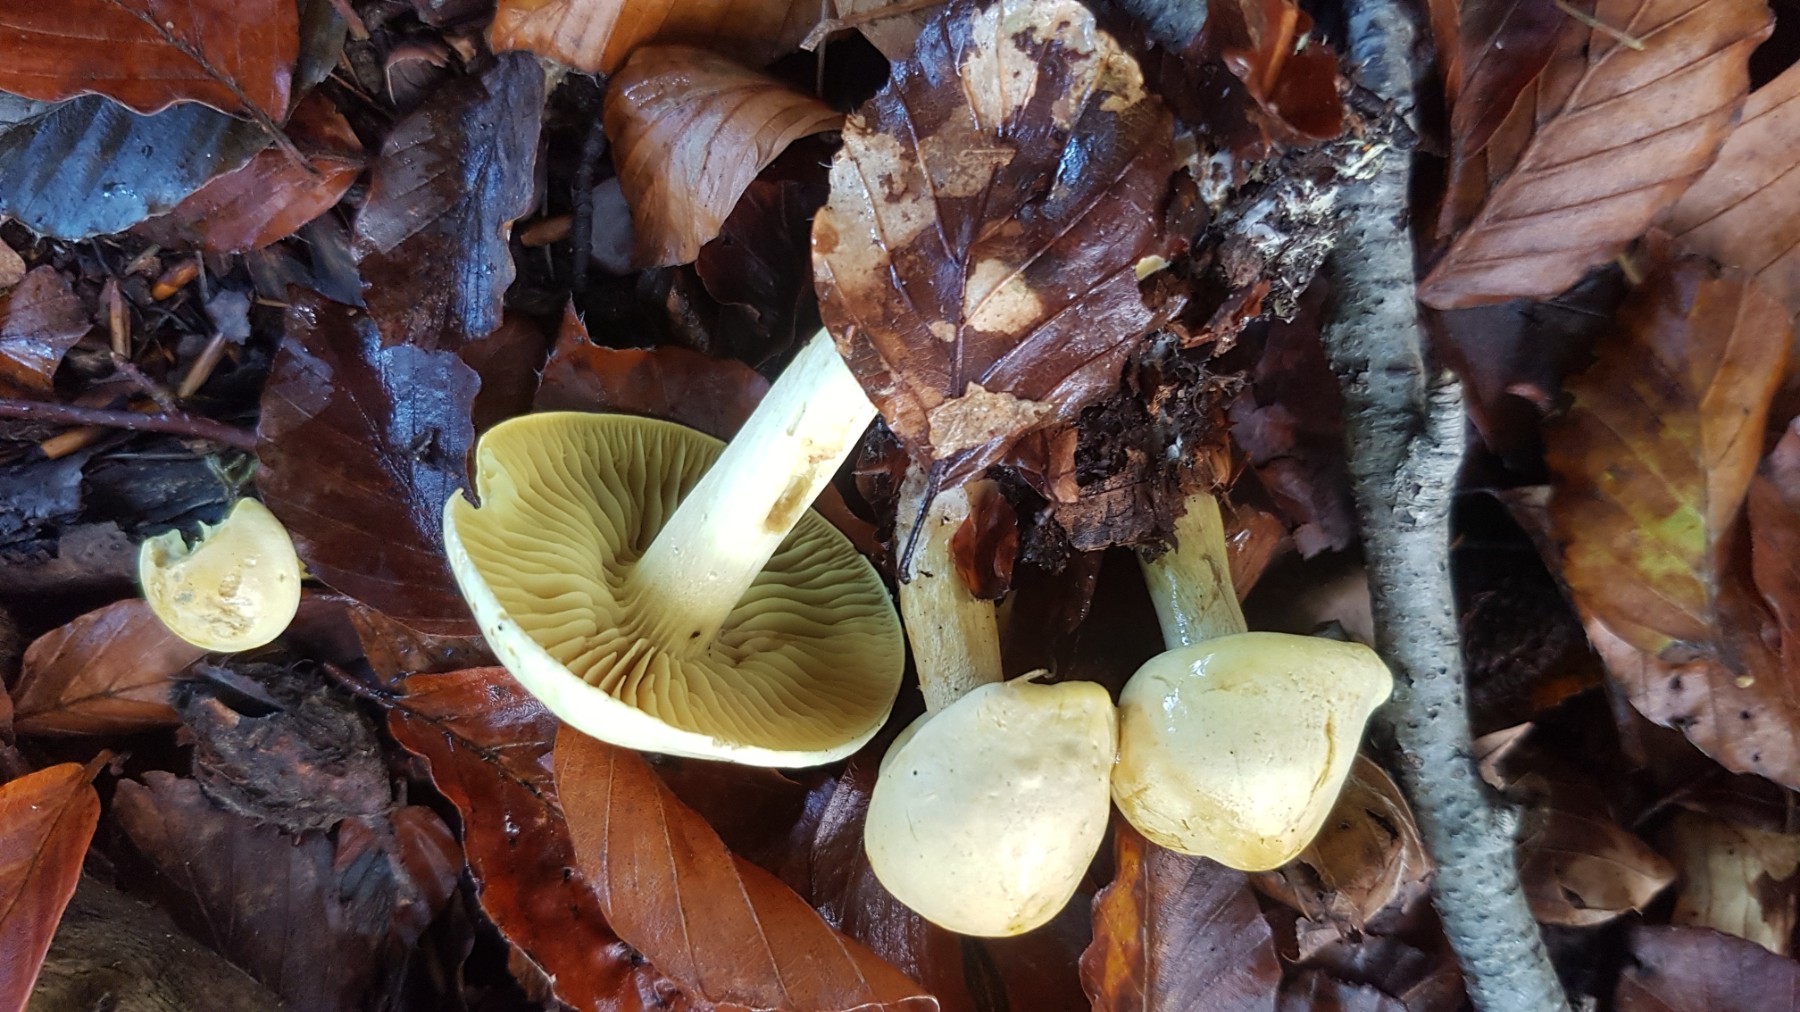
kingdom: Fungi
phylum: Basidiomycota
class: Agaricomycetes
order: Agaricales
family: Tricholomataceae
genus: Tricholoma
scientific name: Tricholoma sulphureum
